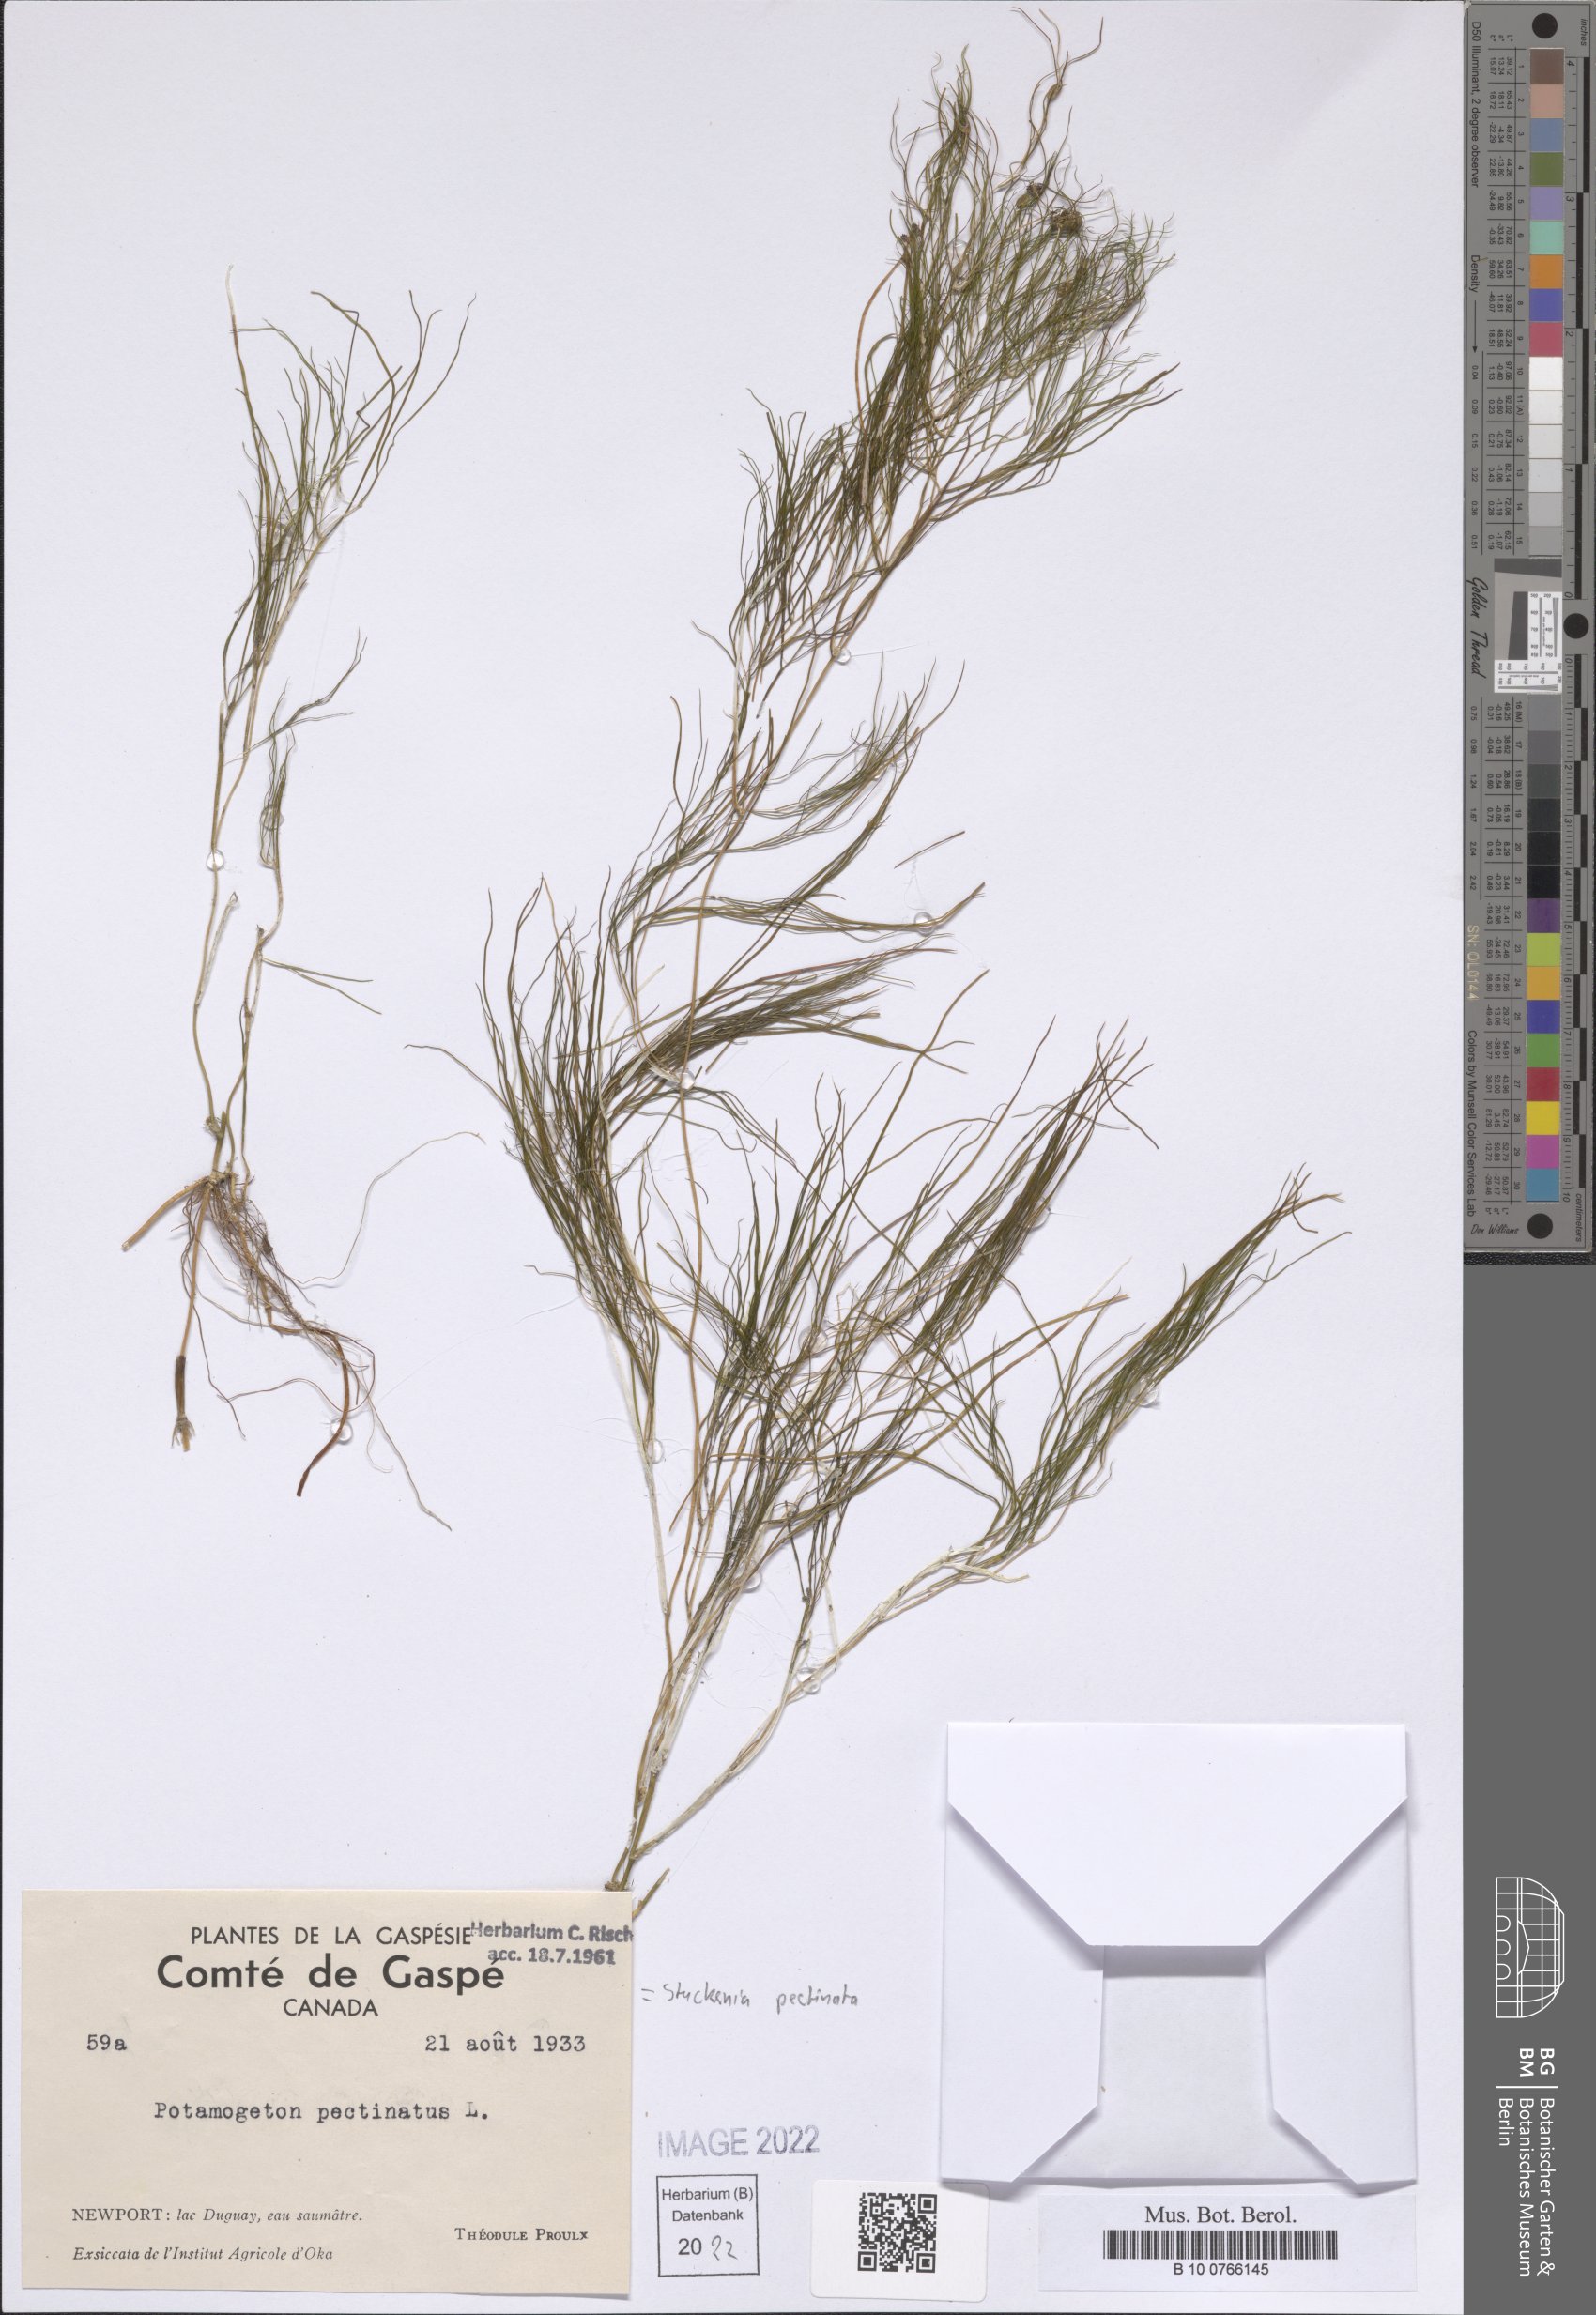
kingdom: Plantae
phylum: Tracheophyta
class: Liliopsida
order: Alismatales
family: Potamogetonaceae
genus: Stuckenia
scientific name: Stuckenia pectinata
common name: Sago pondweed
